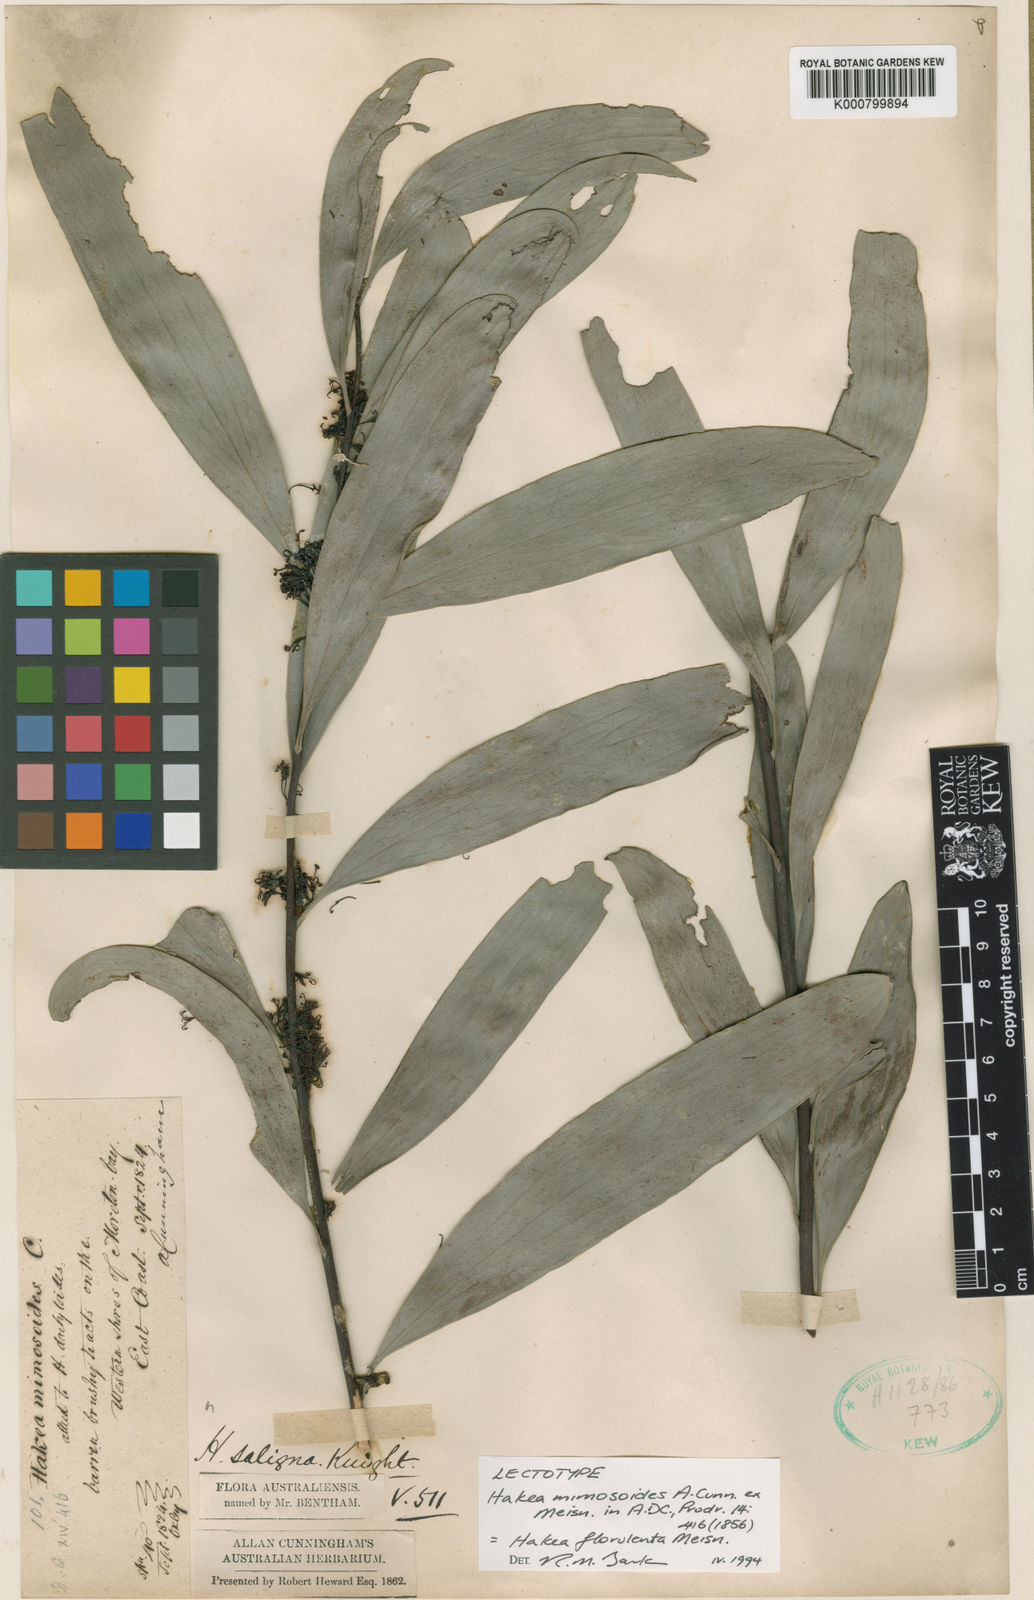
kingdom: Plantae
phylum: Tracheophyta
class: Magnoliopsida
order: Proteales
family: Proteaceae
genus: Hakea
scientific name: Hakea florulenta
